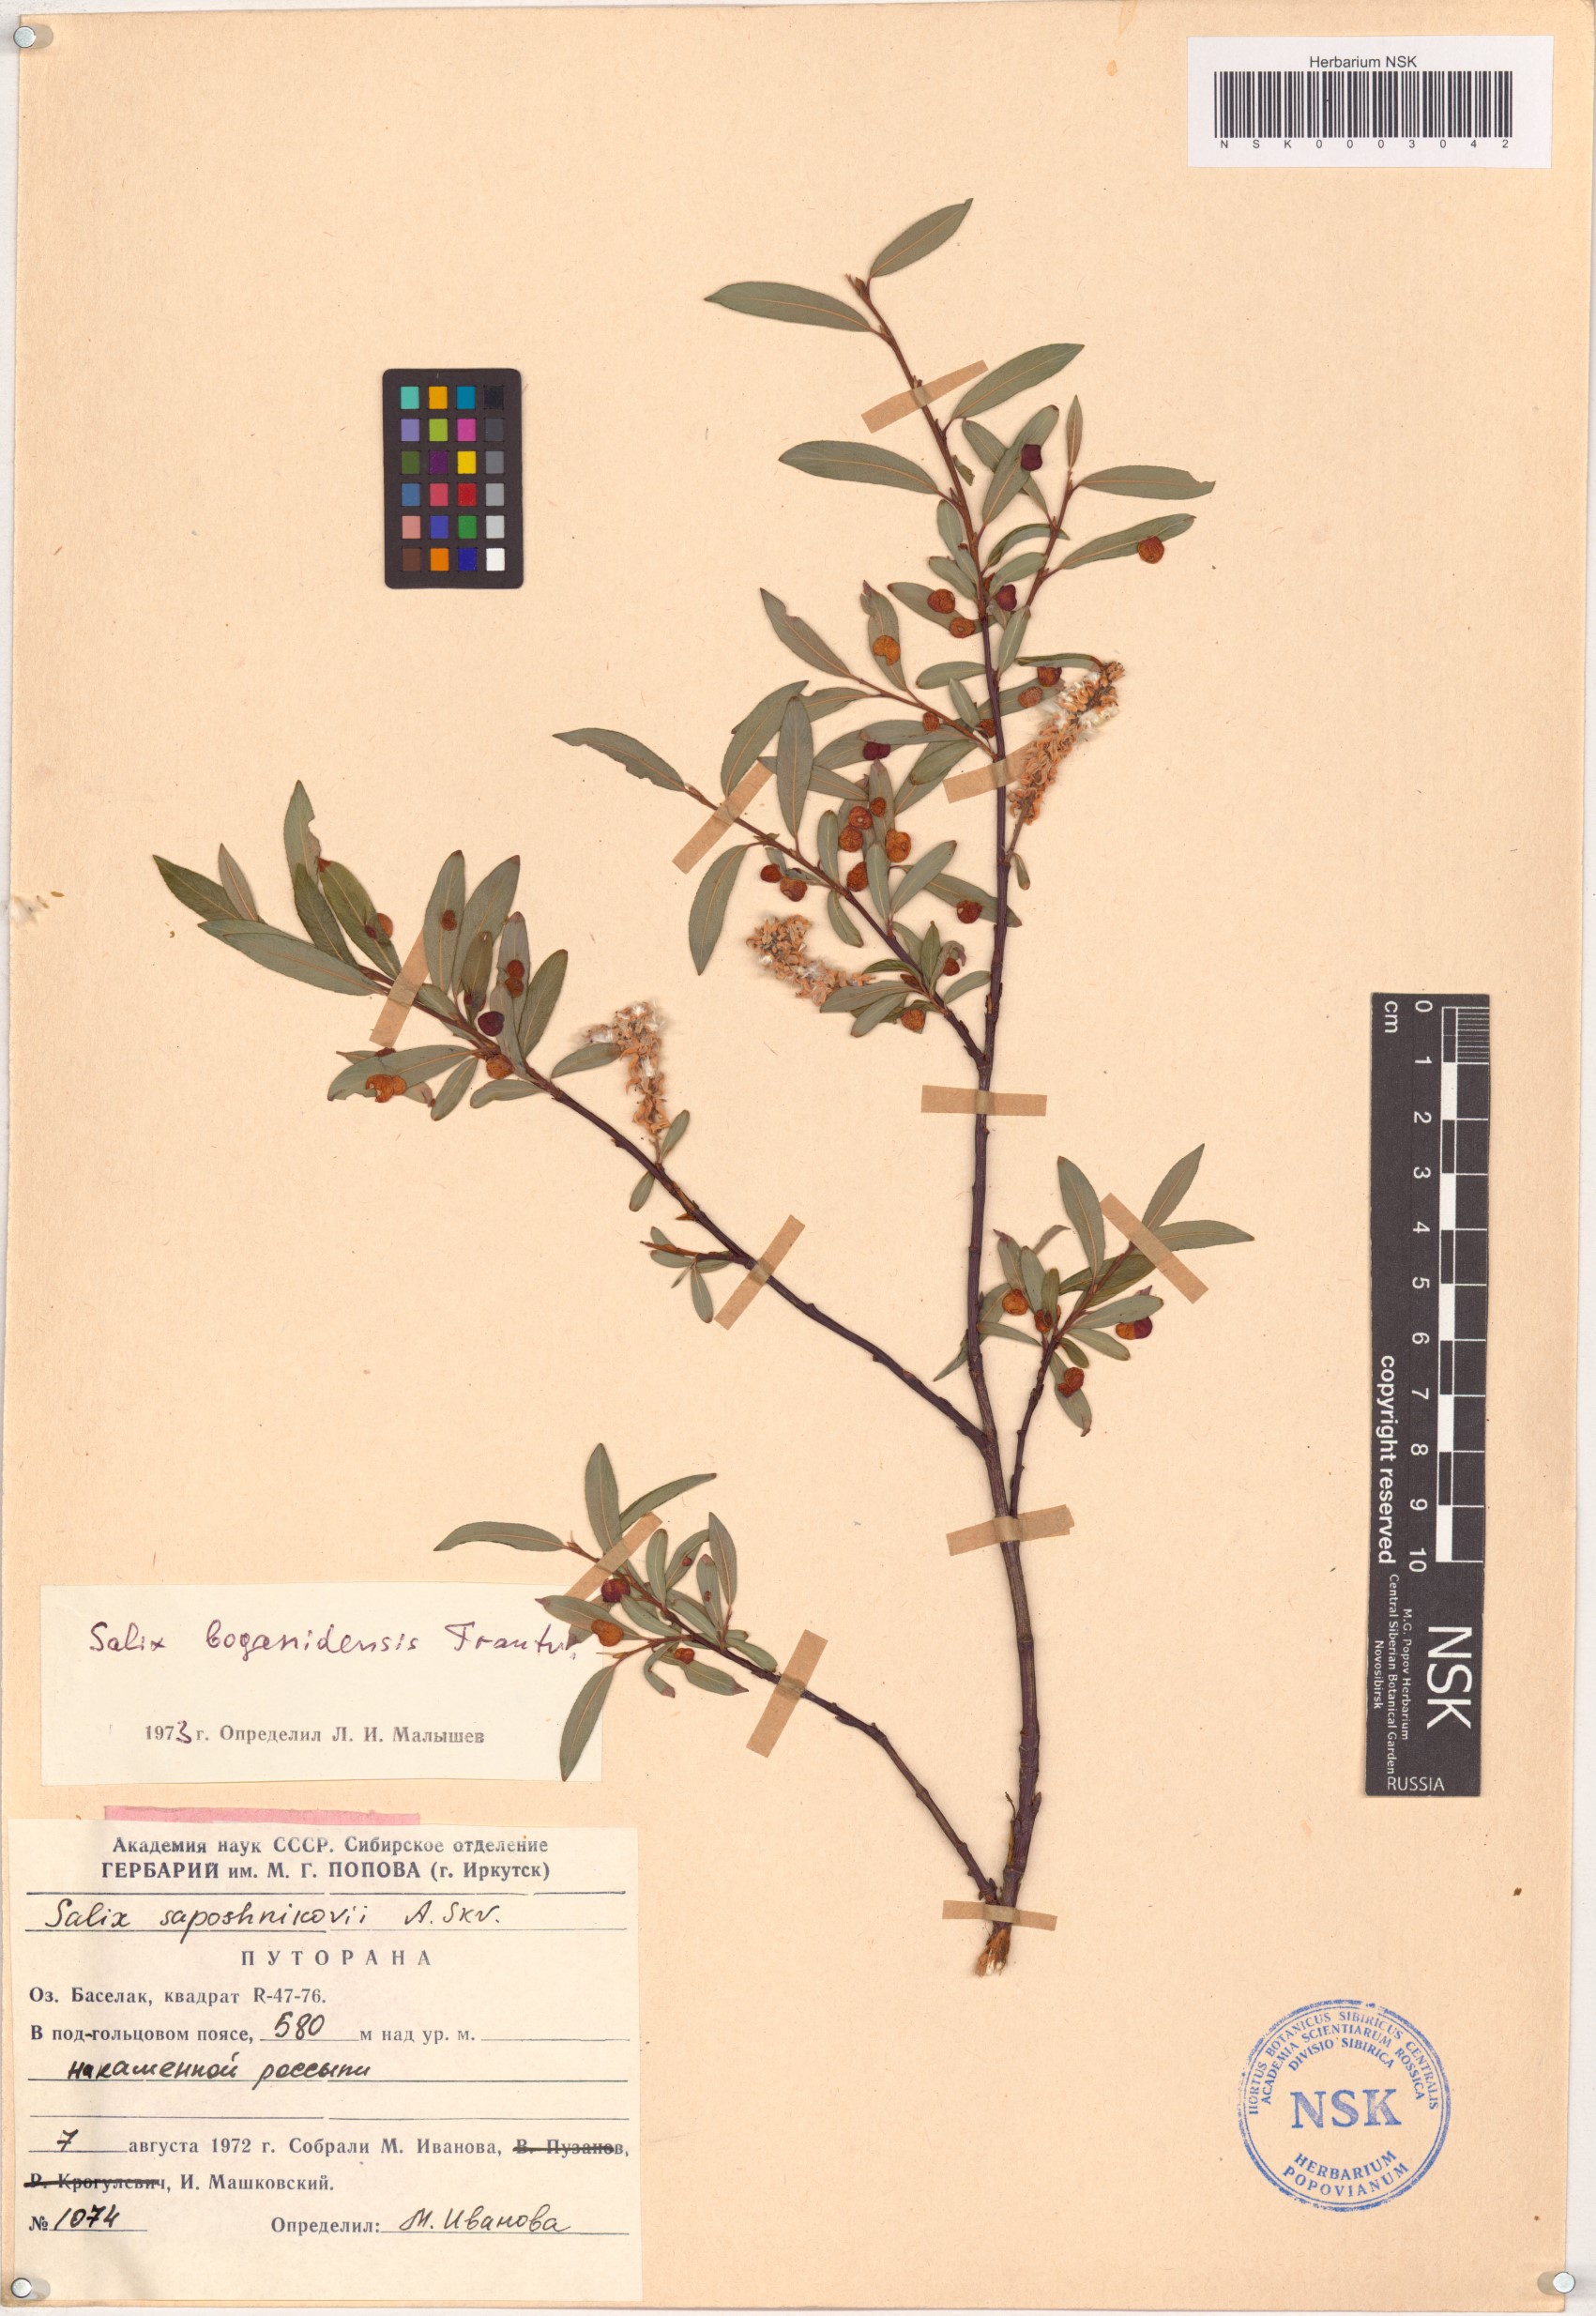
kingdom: Plantae
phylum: Tracheophyta
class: Magnoliopsida
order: Malpighiales
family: Salicaceae
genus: Salix
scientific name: Salix boganidensis
